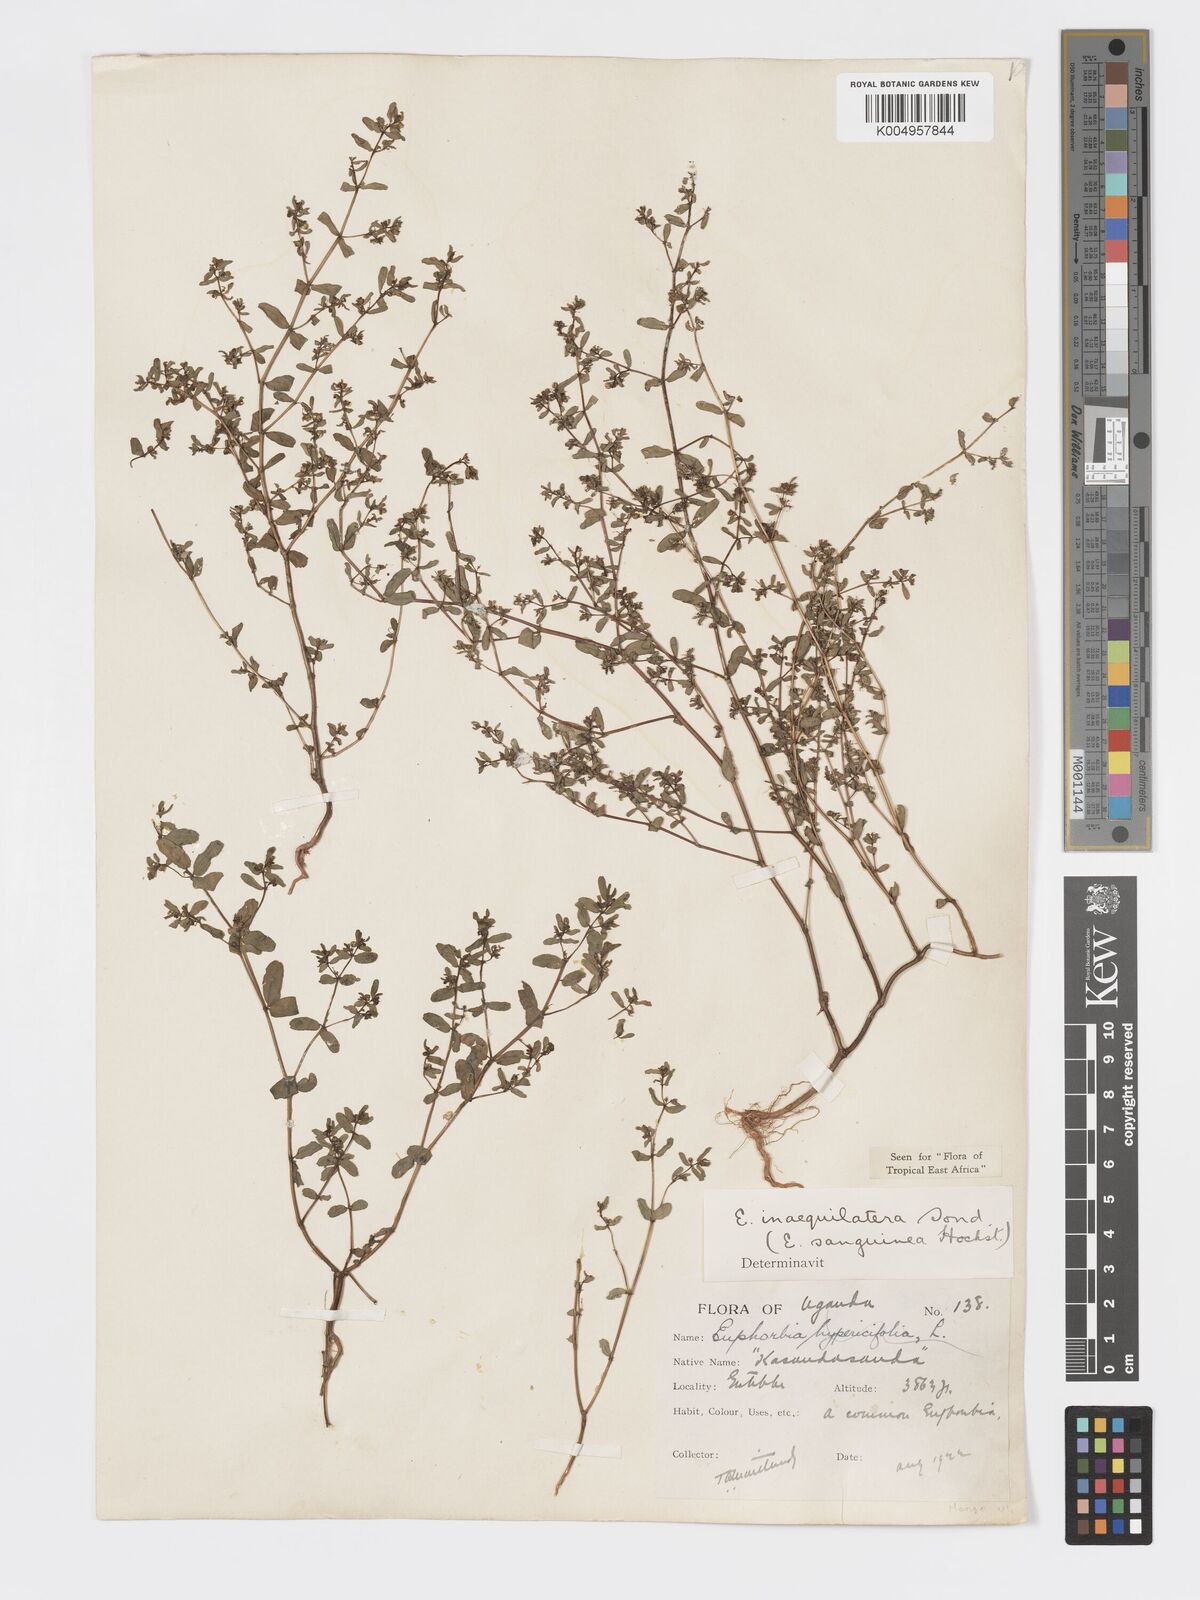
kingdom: Plantae
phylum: Tracheophyta
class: Magnoliopsida
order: Malpighiales
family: Euphorbiaceae
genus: Euphorbia
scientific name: Euphorbia inaequilatera
